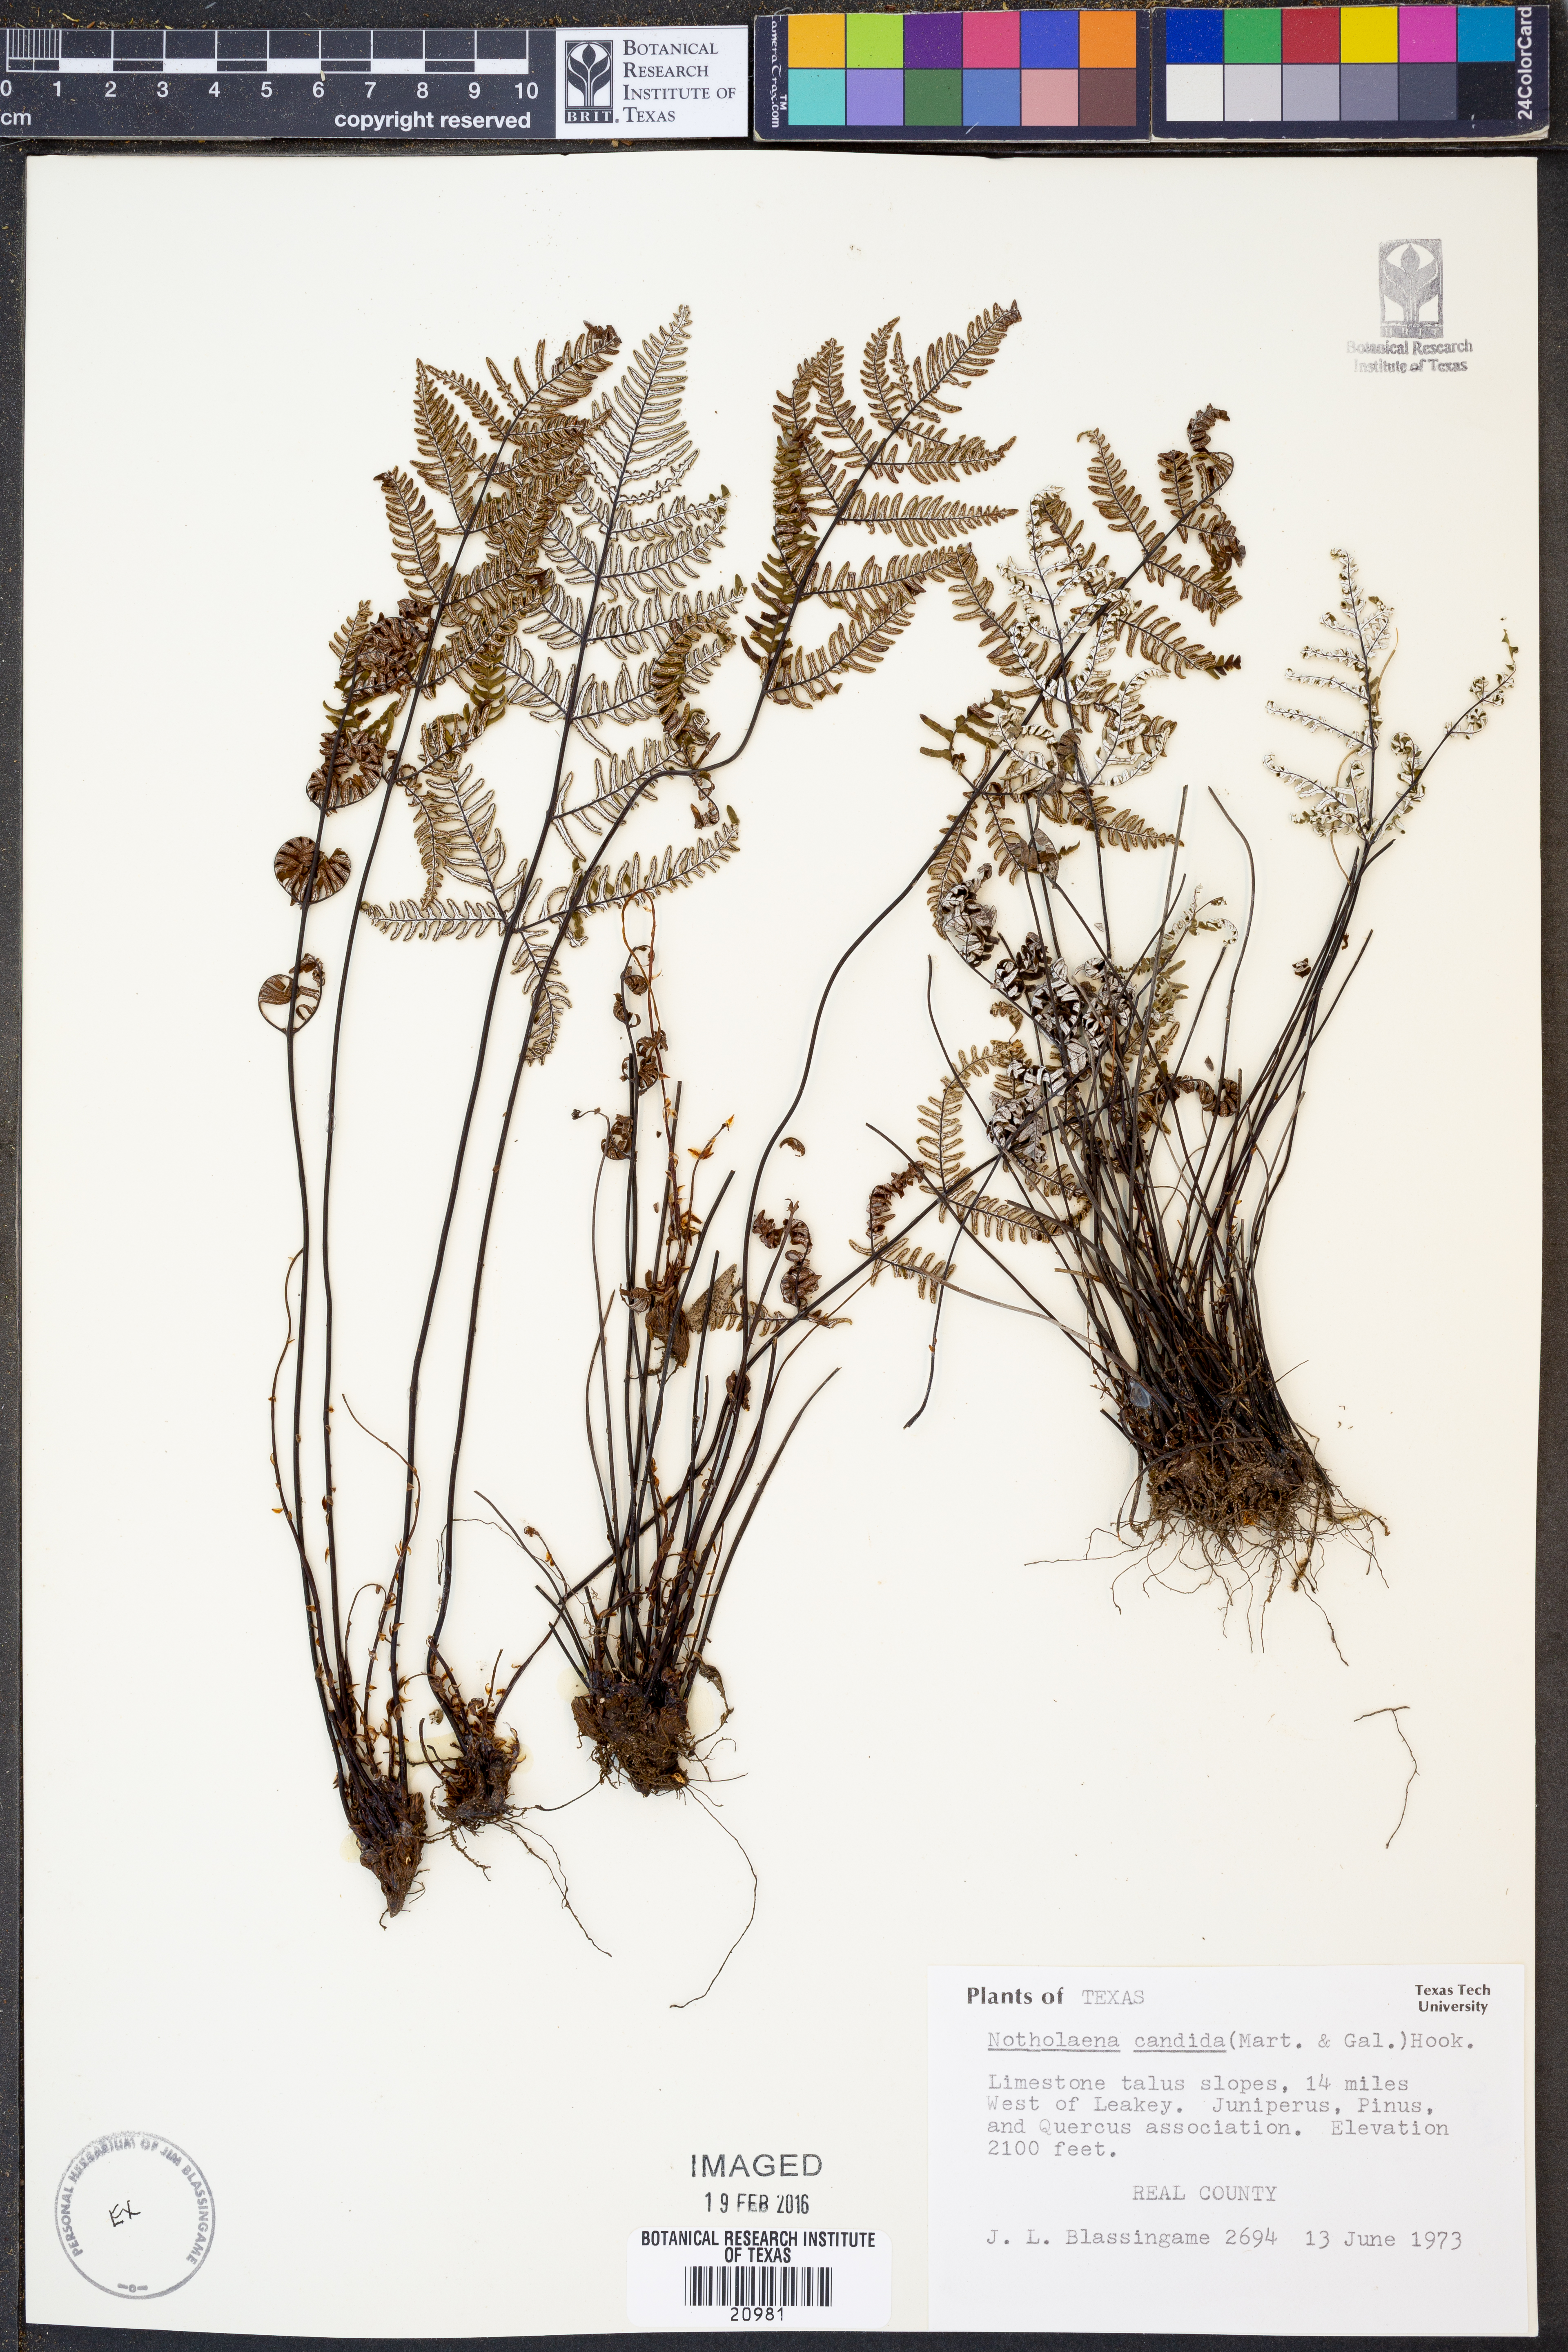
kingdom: Plantae
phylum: Tracheophyta
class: Polypodiopsida
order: Polypodiales
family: Pteridaceae
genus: Notholaena
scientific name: Notholaena candida
